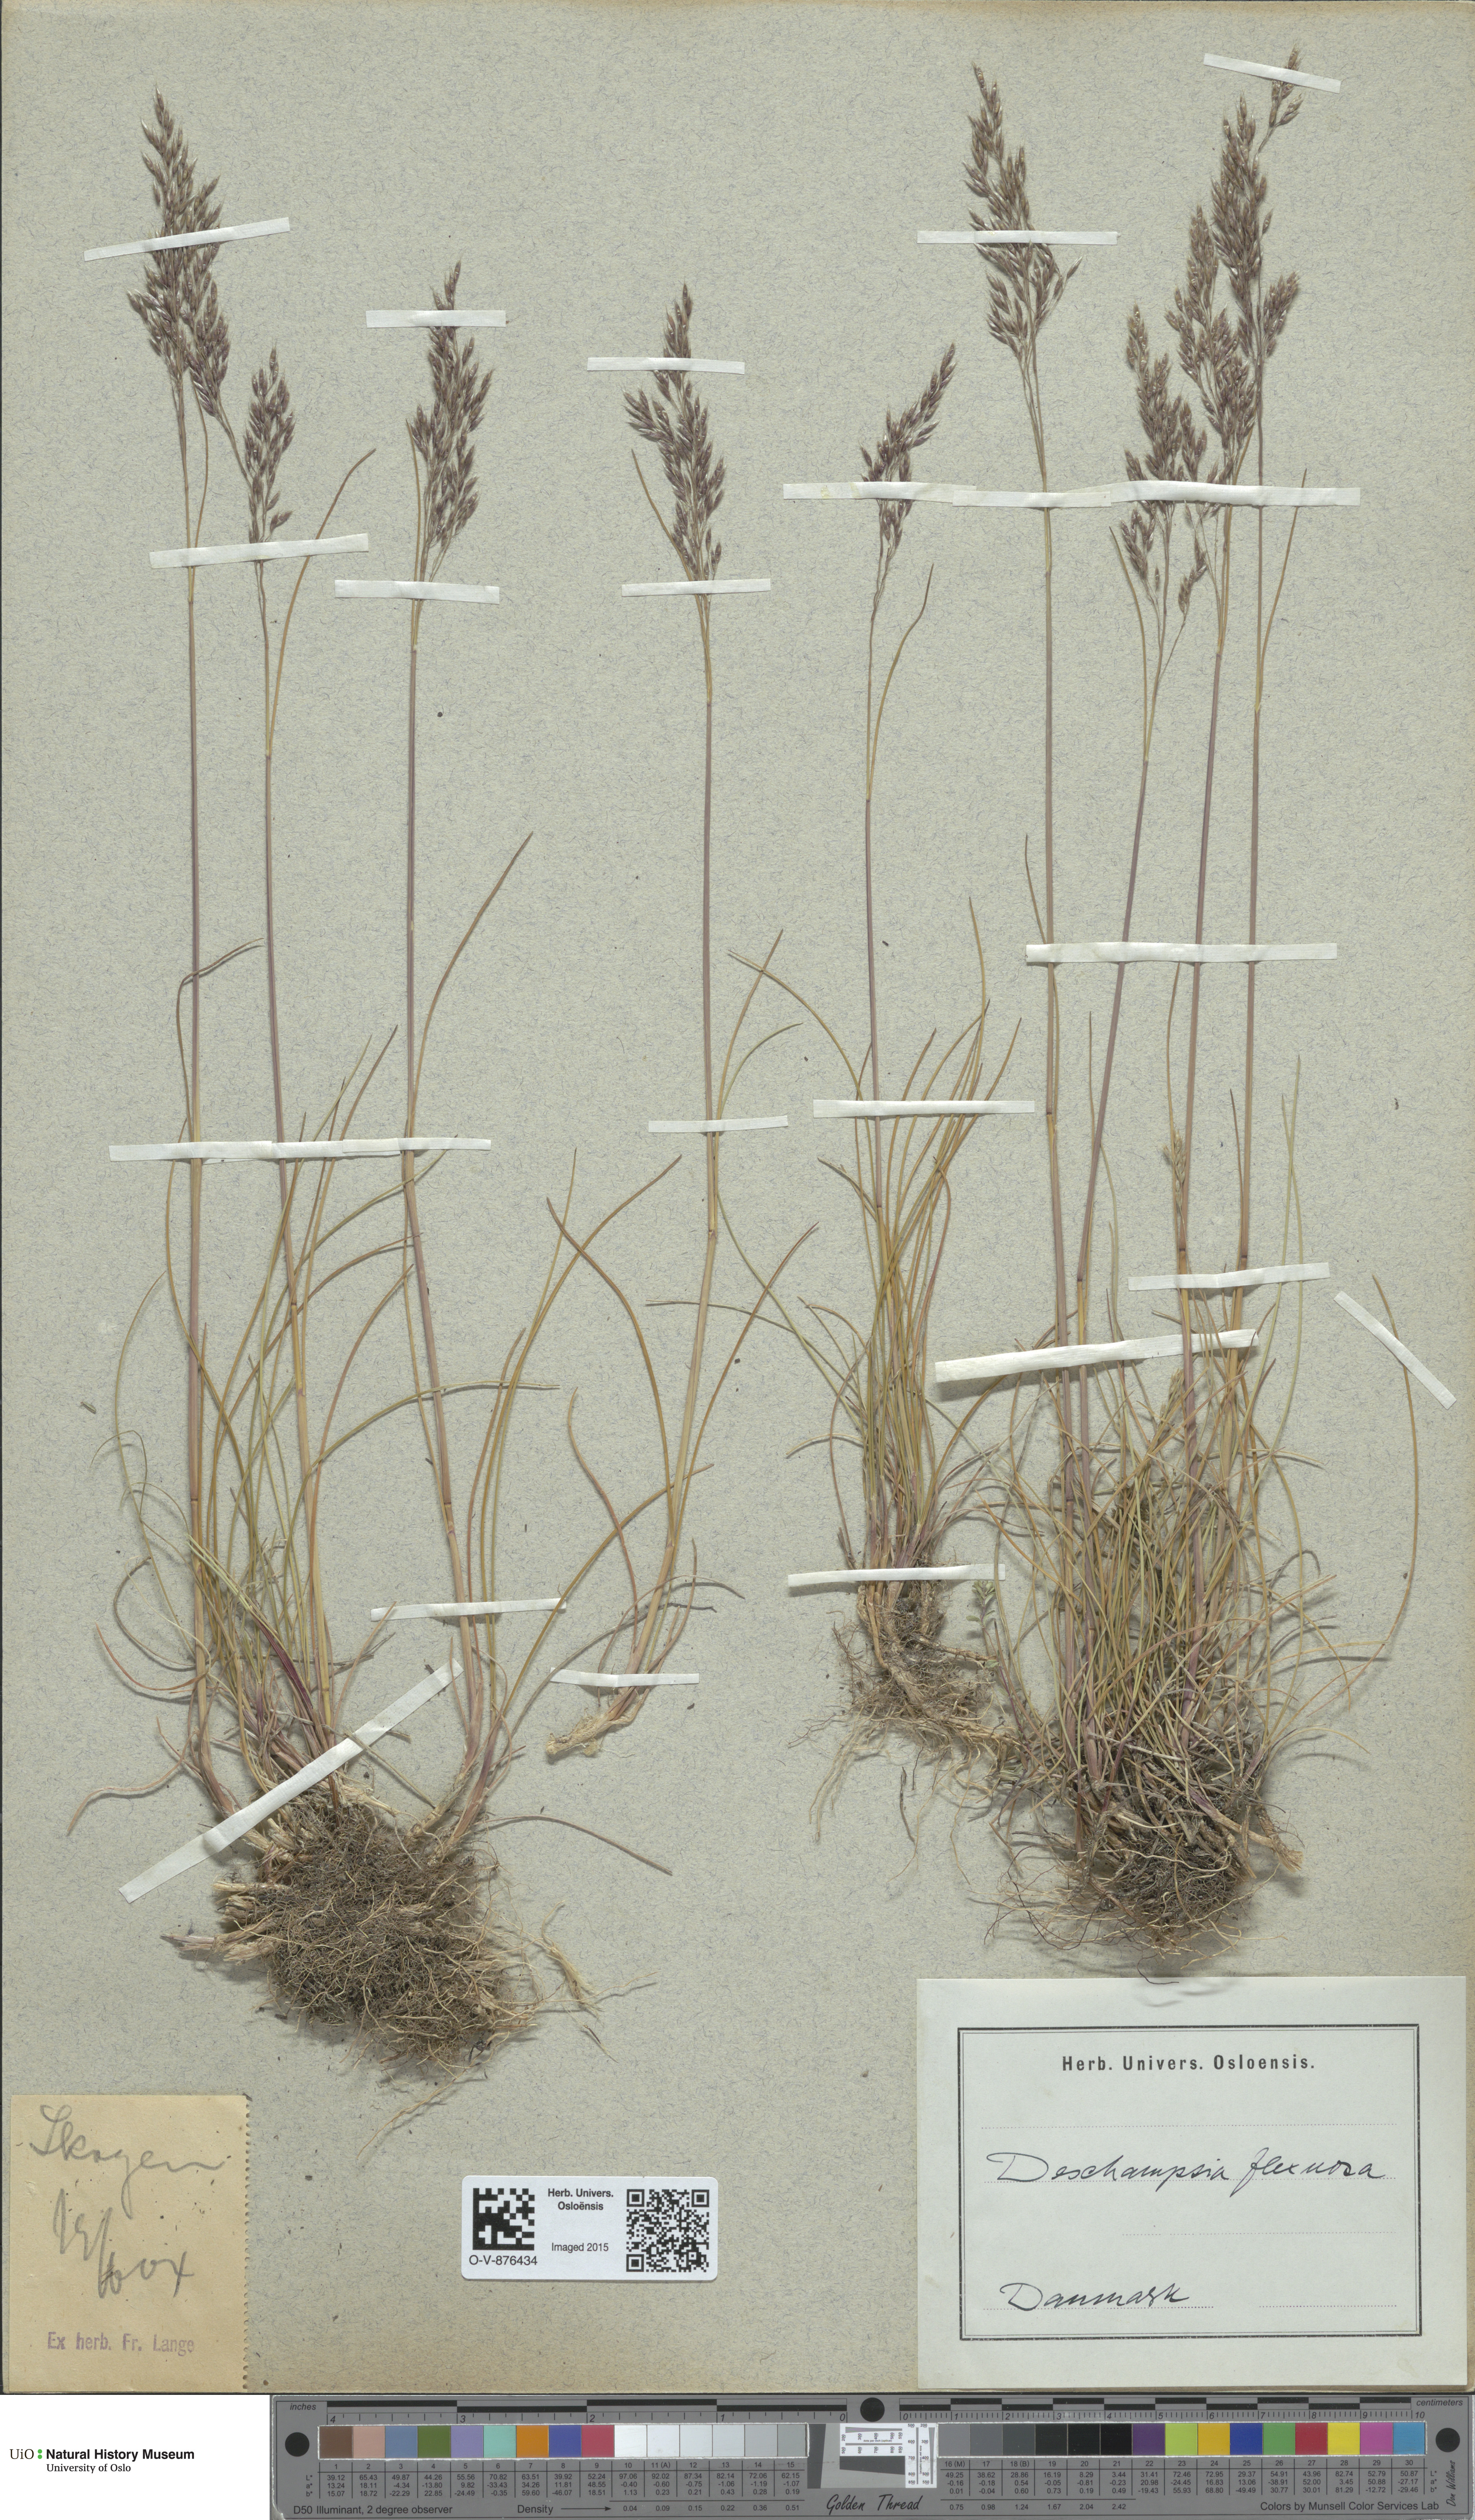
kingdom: Plantae
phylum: Tracheophyta
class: Liliopsida
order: Poales
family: Poaceae
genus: Avenella
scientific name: Avenella flexuosa
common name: Wavy hairgrass
